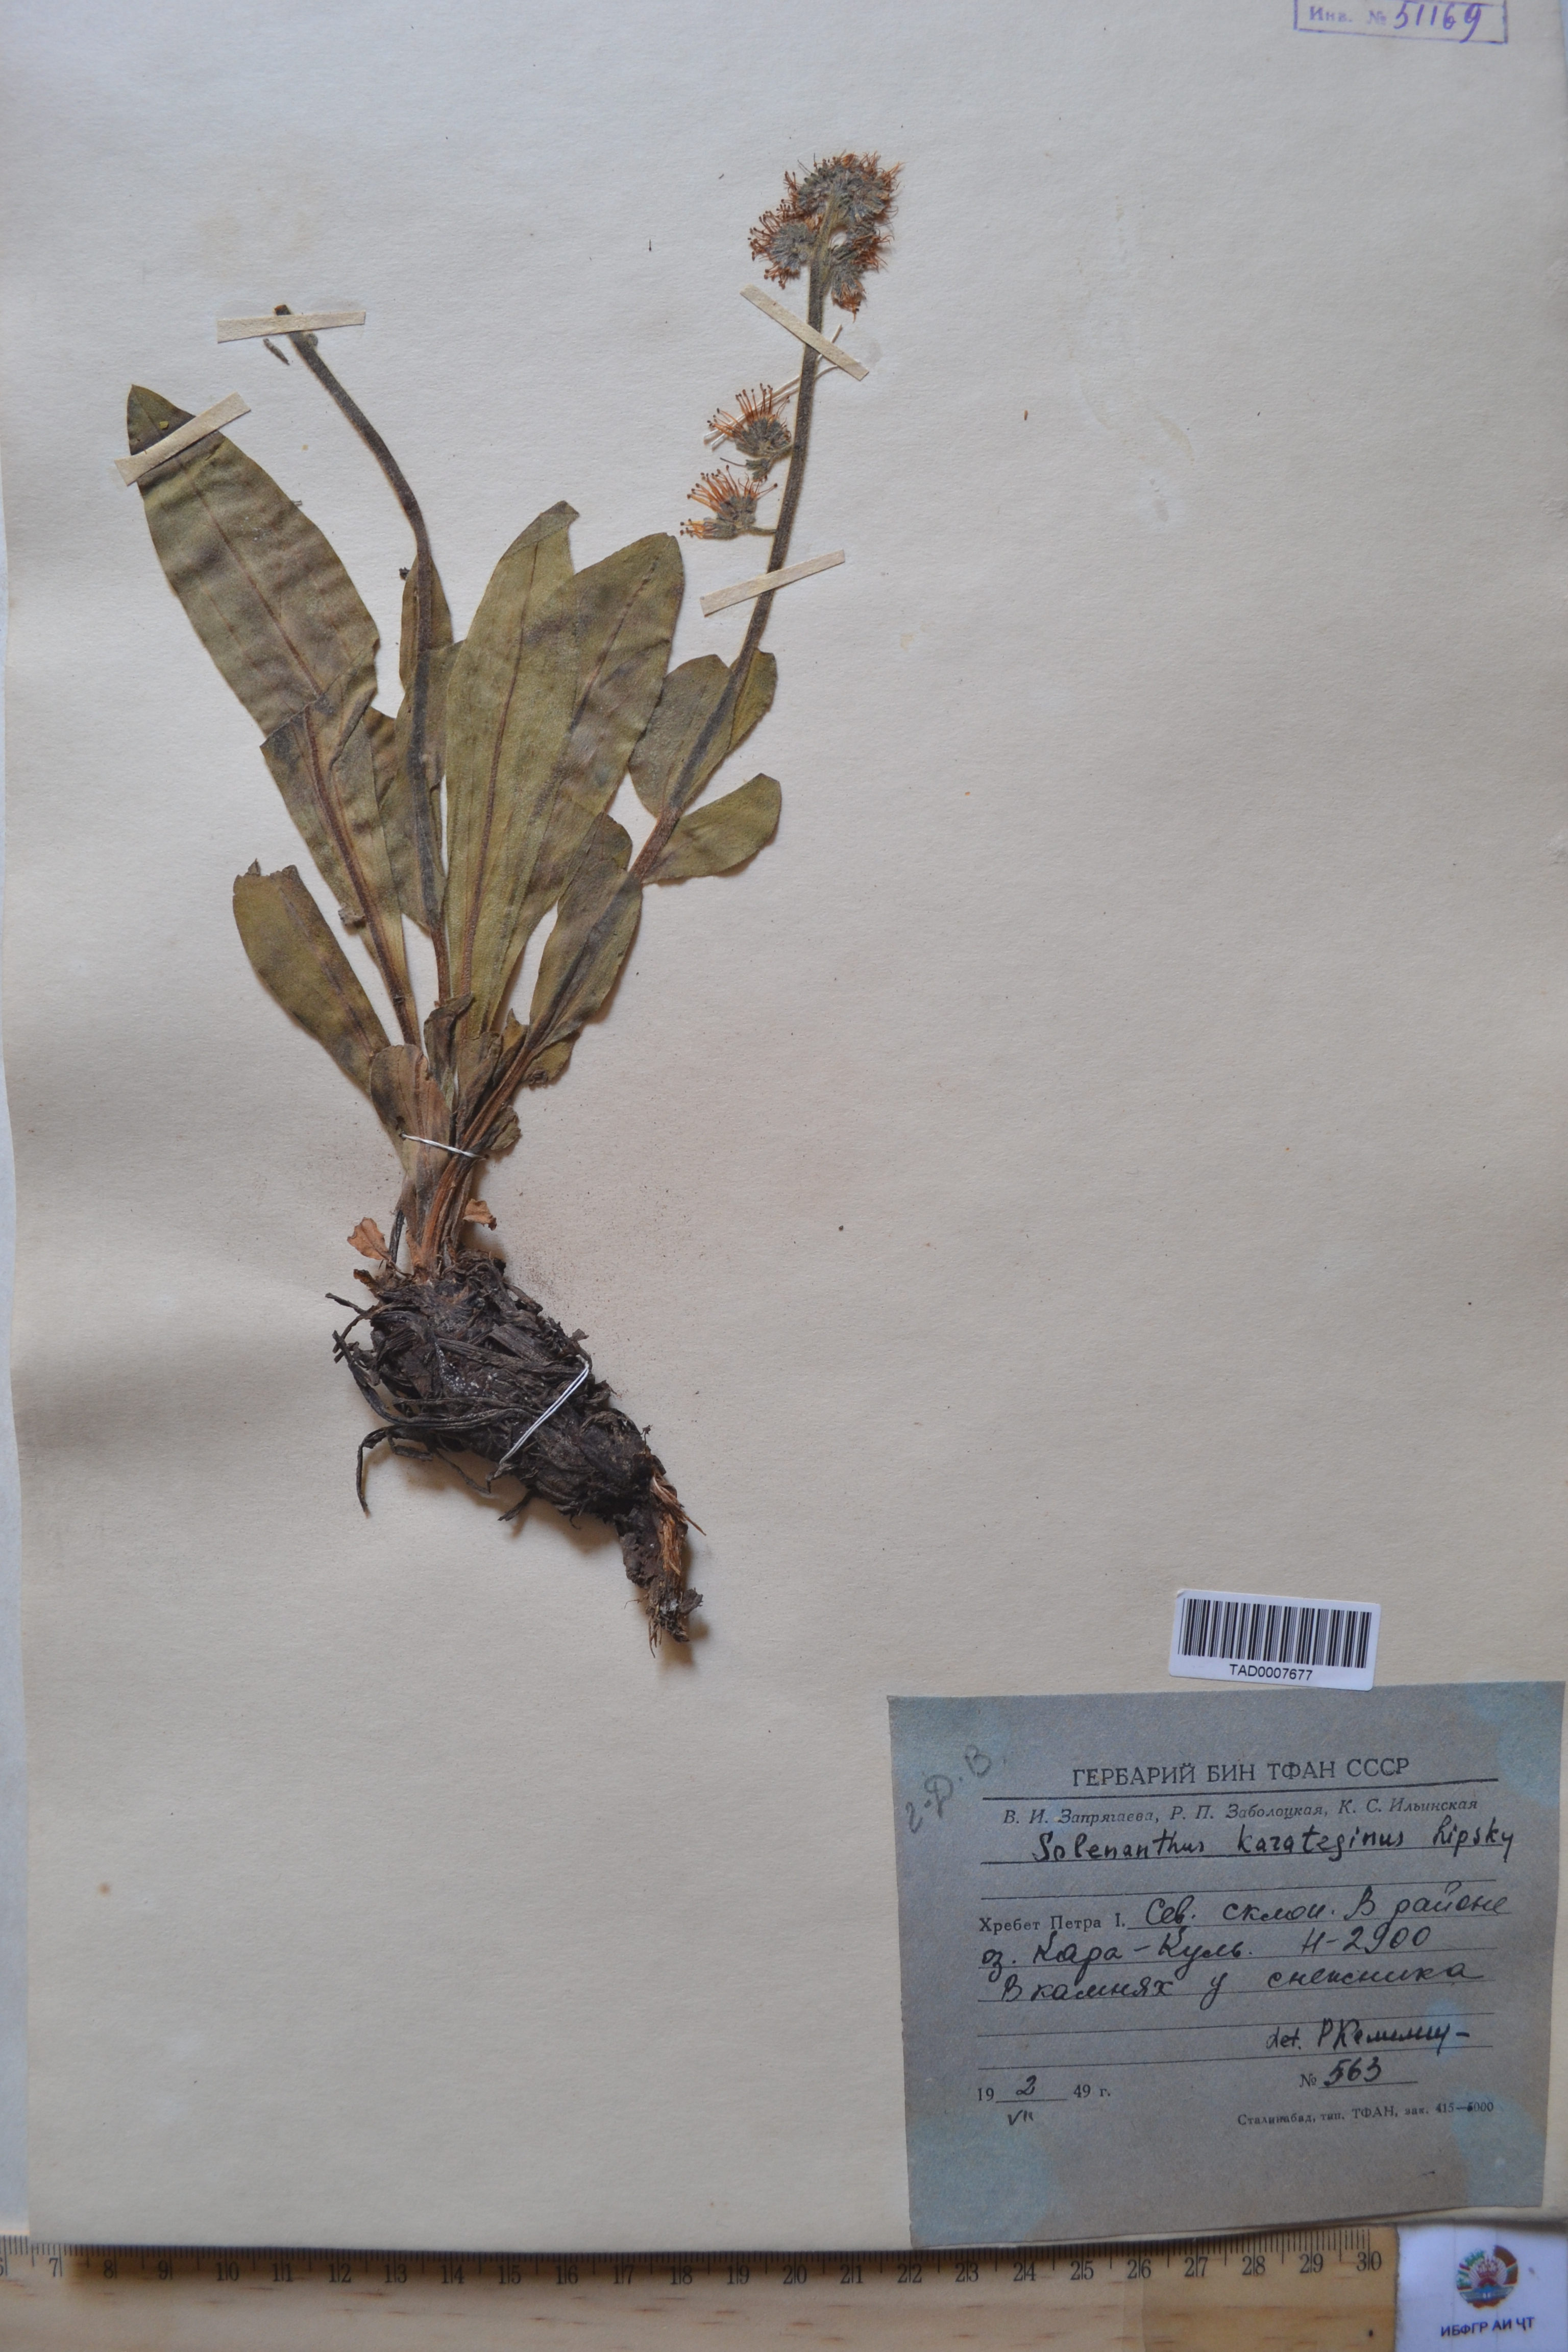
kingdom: Plantae
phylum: Tracheophyta
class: Magnoliopsida
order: Boraginales
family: Boraginaceae
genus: Solenanthus
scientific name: Solenanthus karateginus
